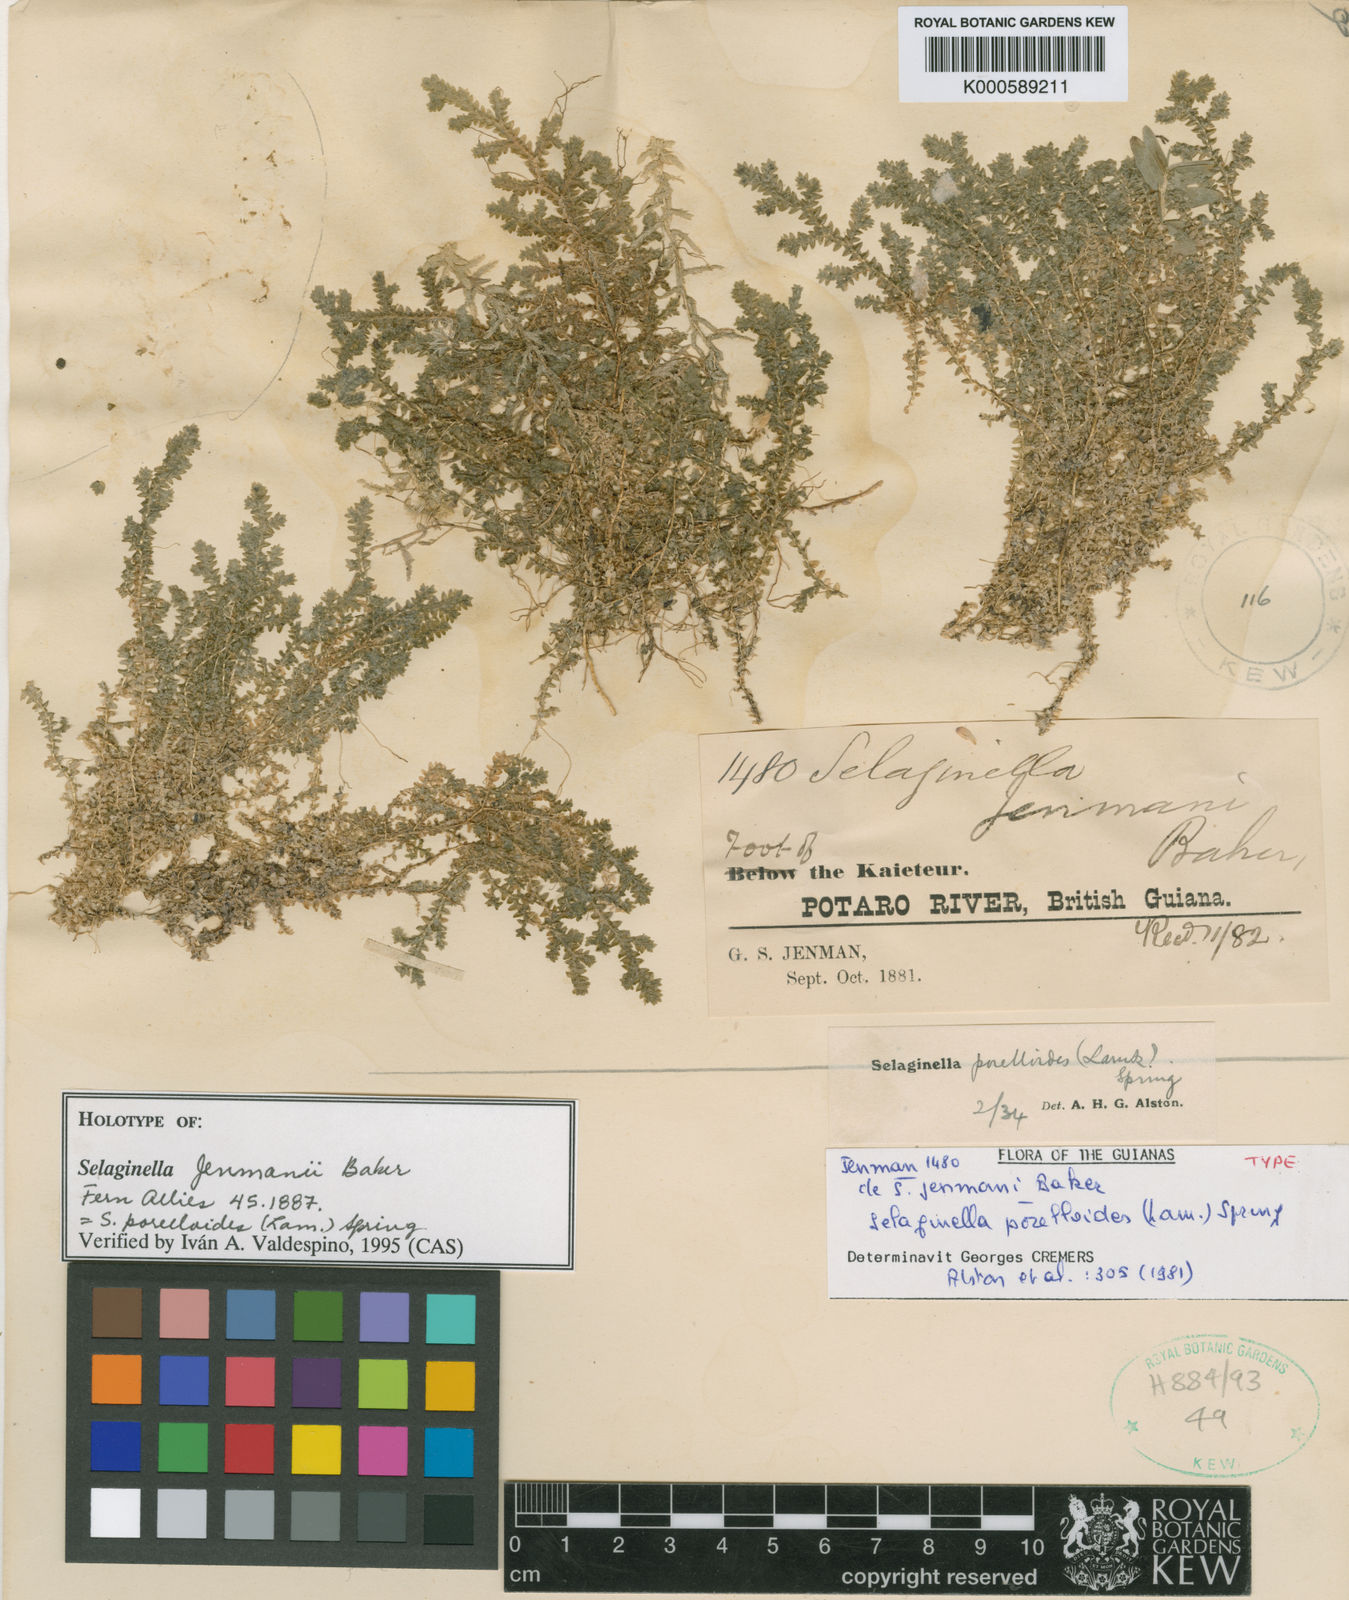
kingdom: Plantae
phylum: Tracheophyta
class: Lycopodiopsida
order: Selaginellales
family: Selaginellaceae
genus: Selaginella
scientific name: Selaginella porelloides
